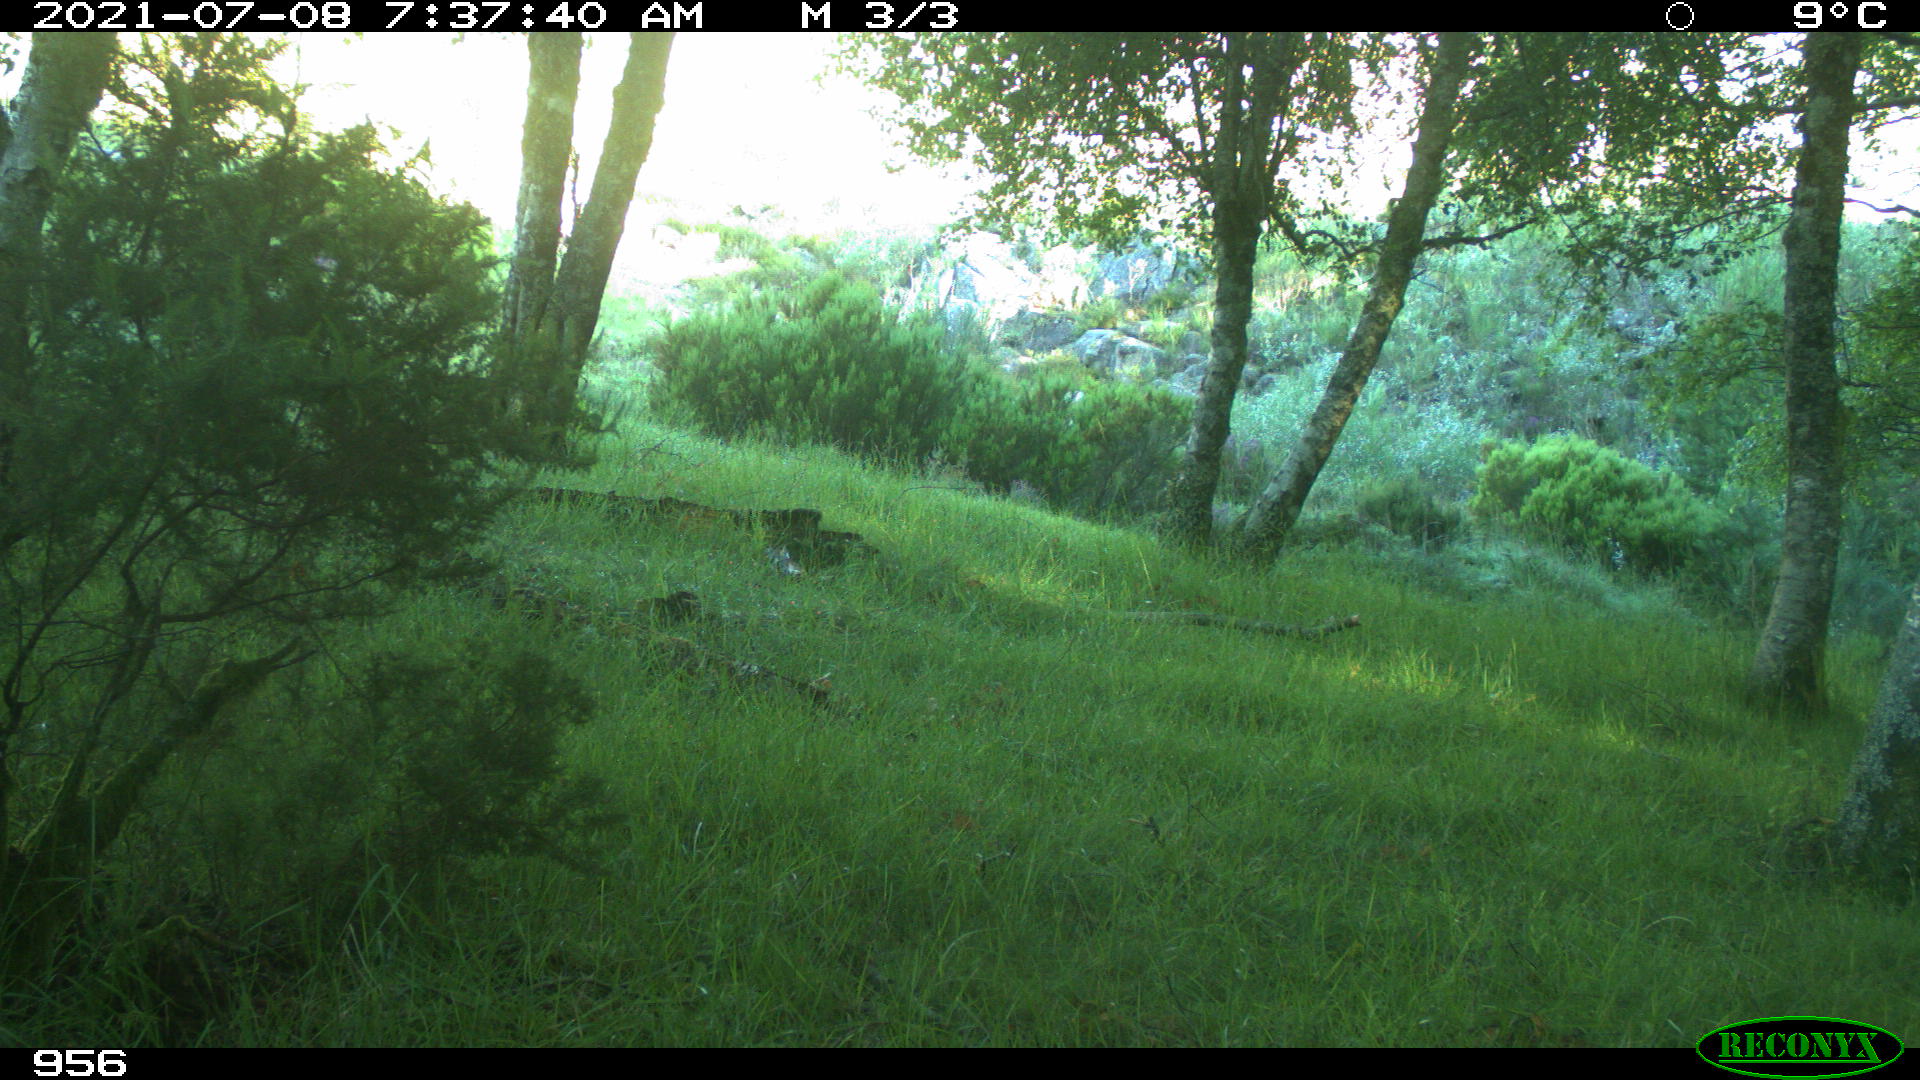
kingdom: Animalia
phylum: Chordata
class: Mammalia
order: Artiodactyla
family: Cervidae
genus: Capreolus
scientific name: Capreolus capreolus
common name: Western roe deer
